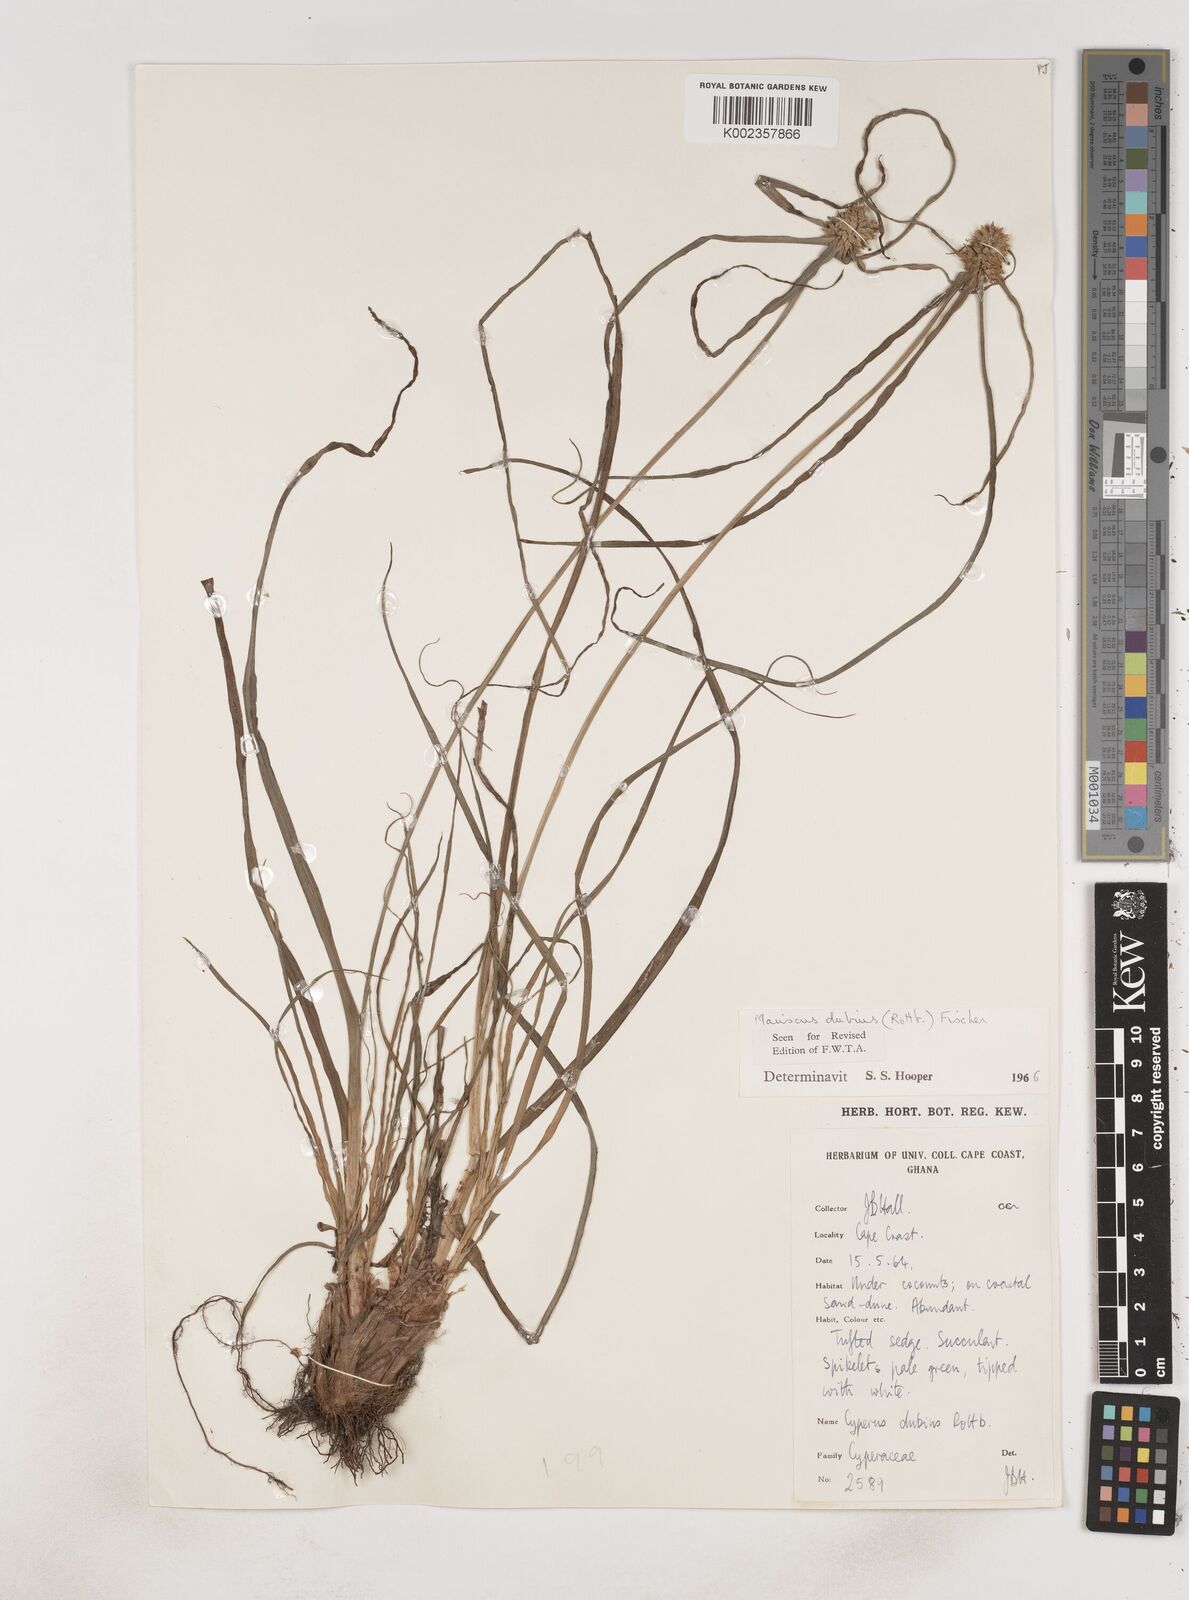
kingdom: Plantae
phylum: Tracheophyta
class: Liliopsida
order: Poales
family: Cyperaceae
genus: Cyperus
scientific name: Cyperus dubius
